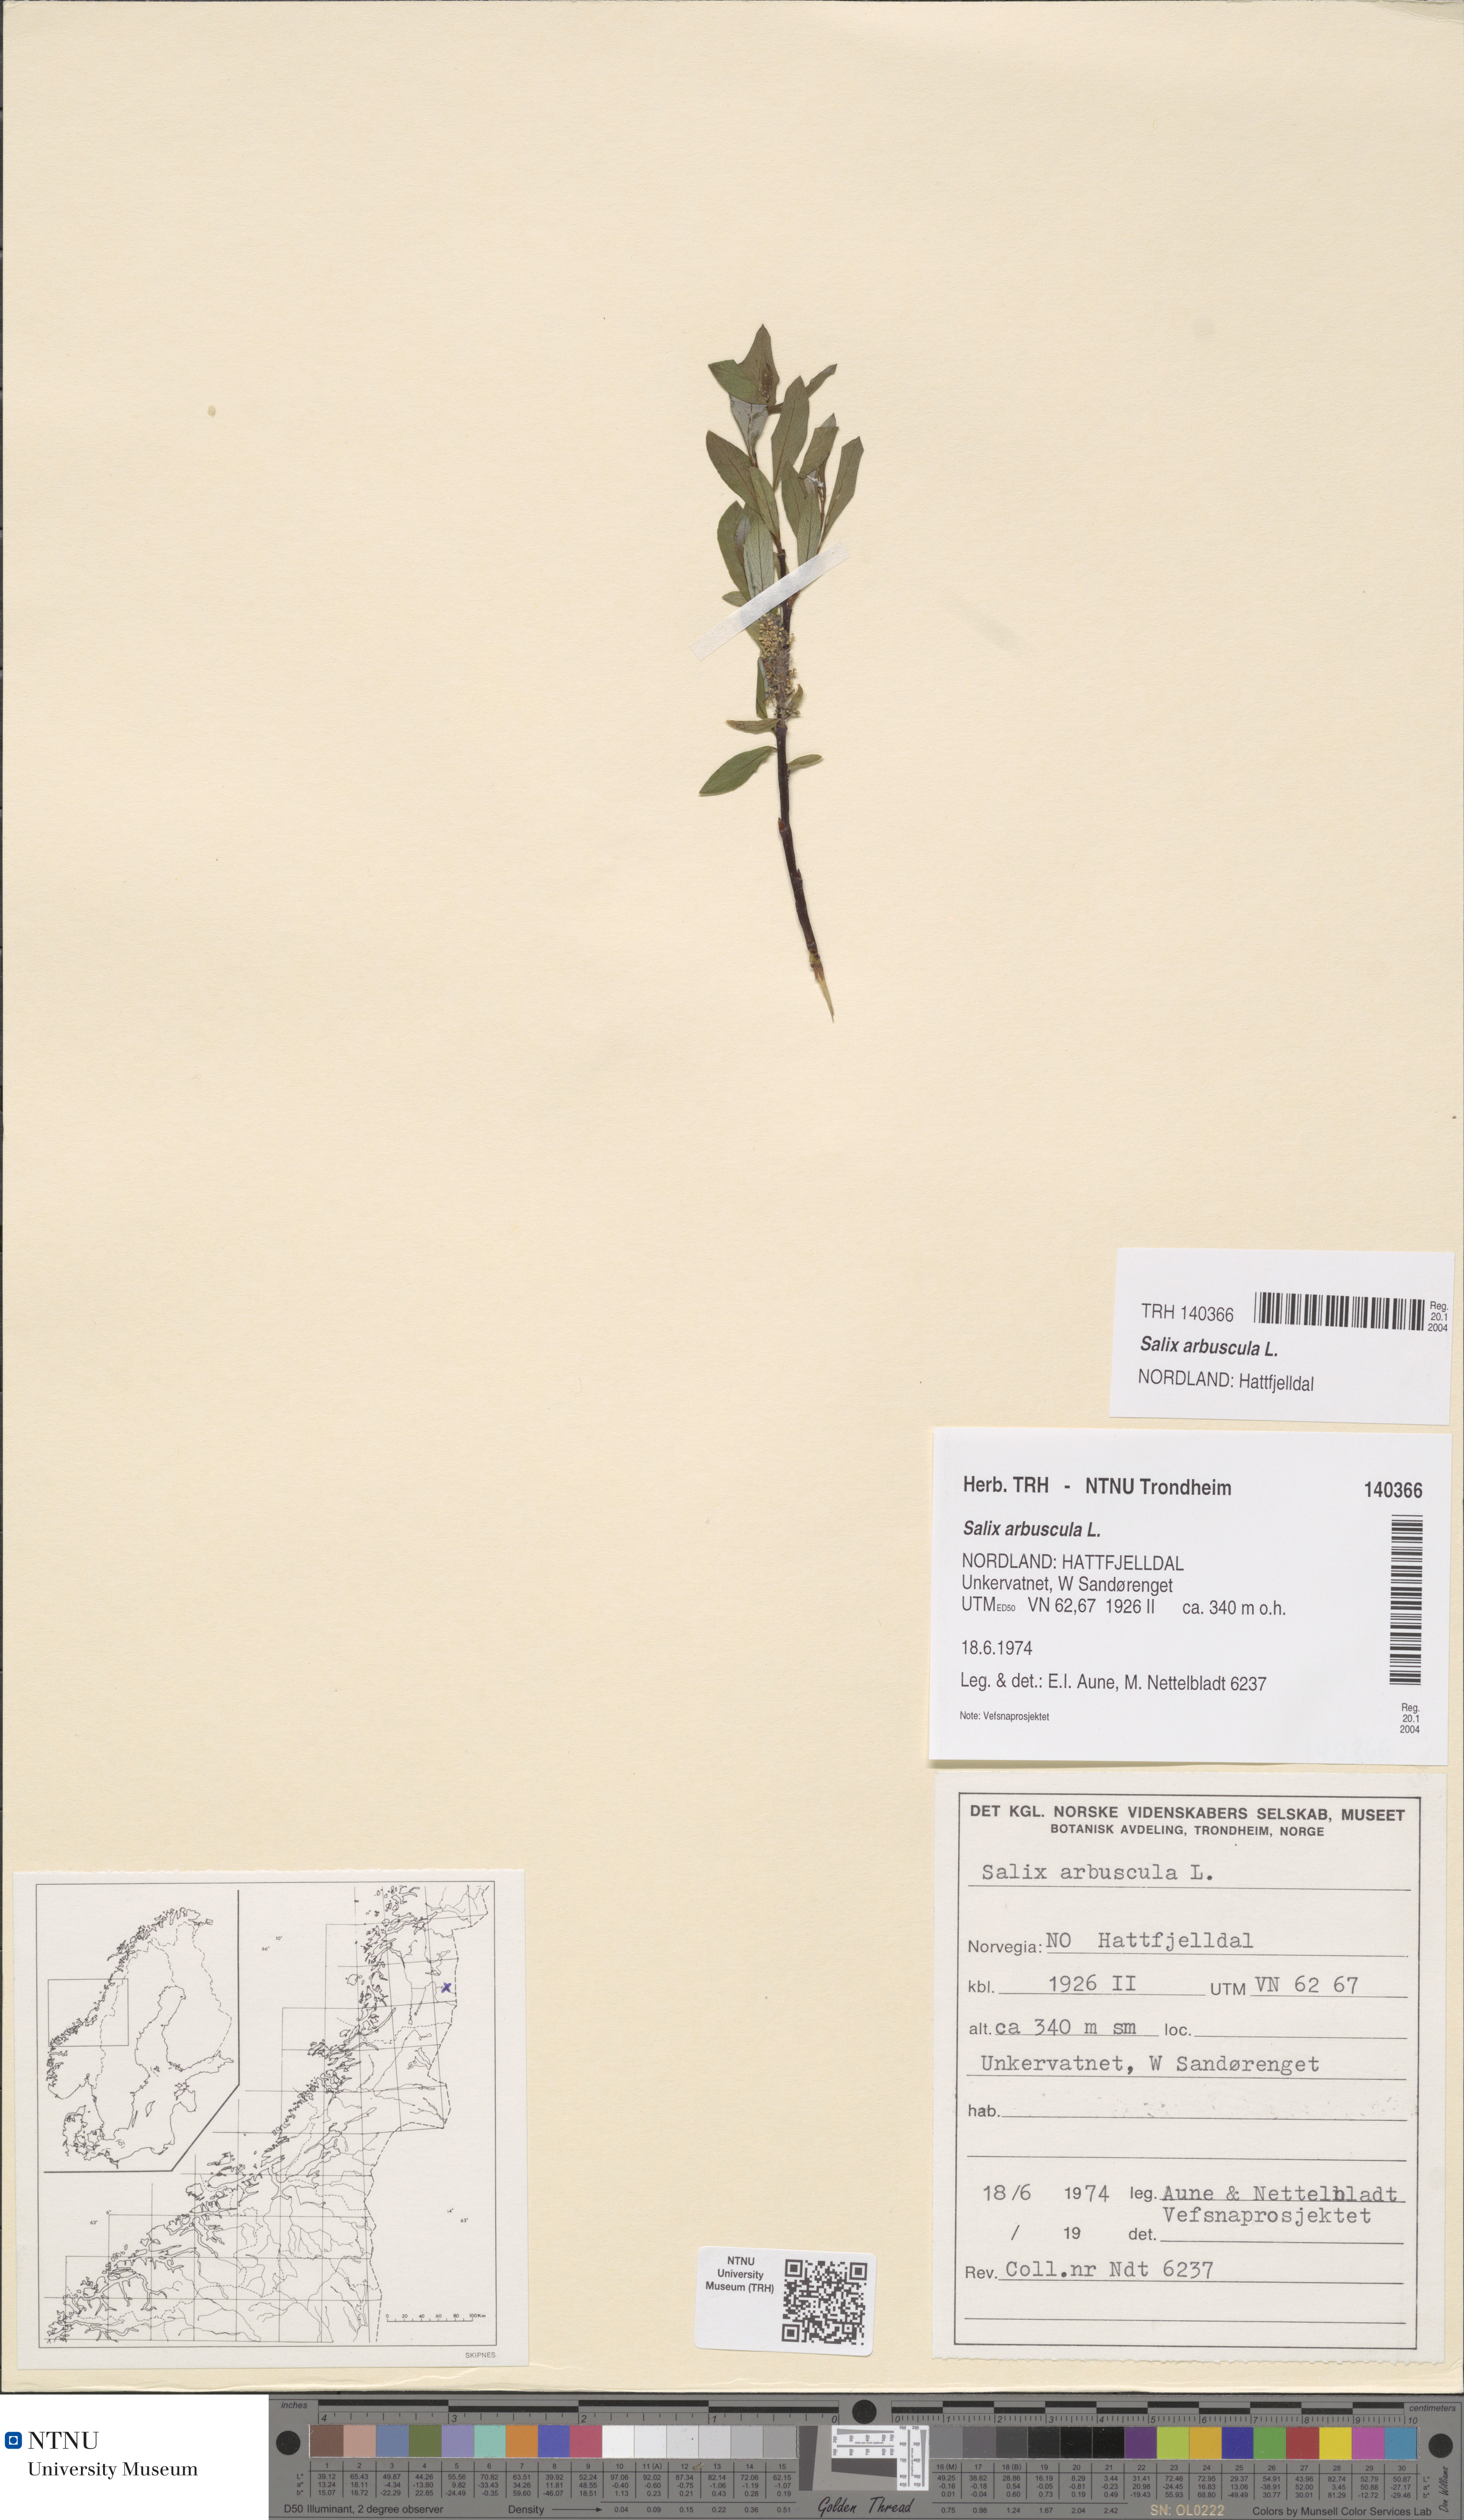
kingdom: Plantae
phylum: Tracheophyta
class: Magnoliopsida
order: Malpighiales
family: Salicaceae
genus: Salix
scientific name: Salix arbuscula
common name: Mountain willow
